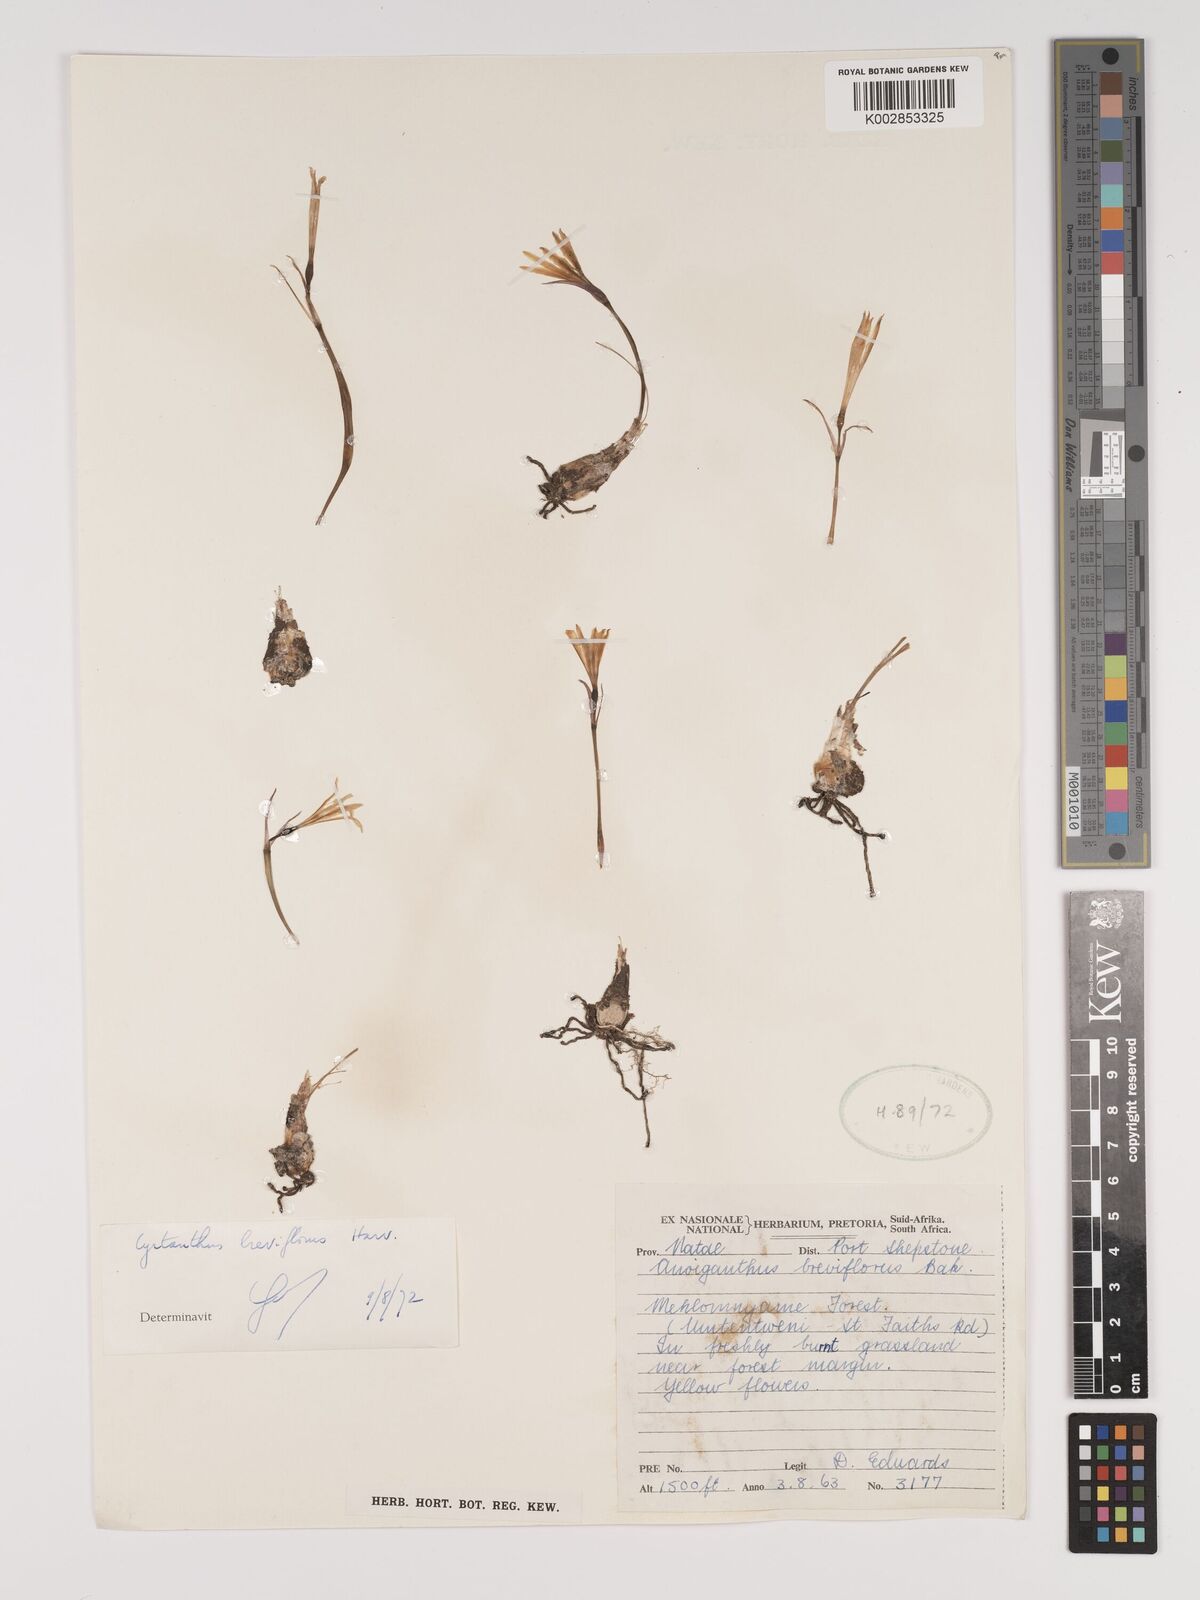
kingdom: Plantae
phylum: Tracheophyta
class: Liliopsida
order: Asparagales
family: Amaryllidaceae
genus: Cyrtanthus
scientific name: Cyrtanthus breviflorus
